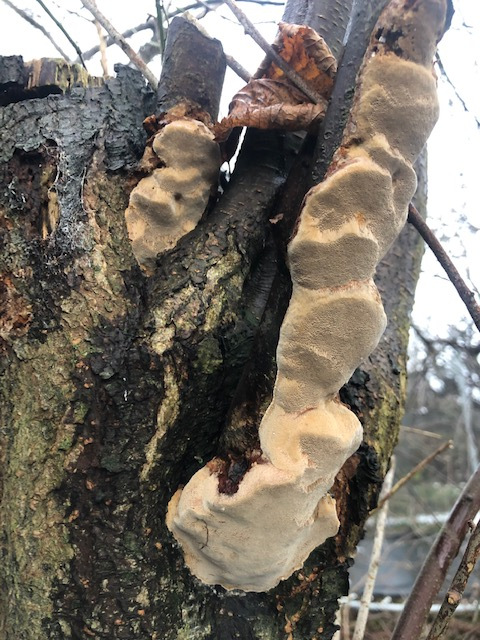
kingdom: Fungi
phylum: Basidiomycota
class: Agaricomycetes
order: Hymenochaetales
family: Hymenochaetaceae
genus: Phellinus
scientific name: Phellinus pomaceus
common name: blomme-ildporesvamp
